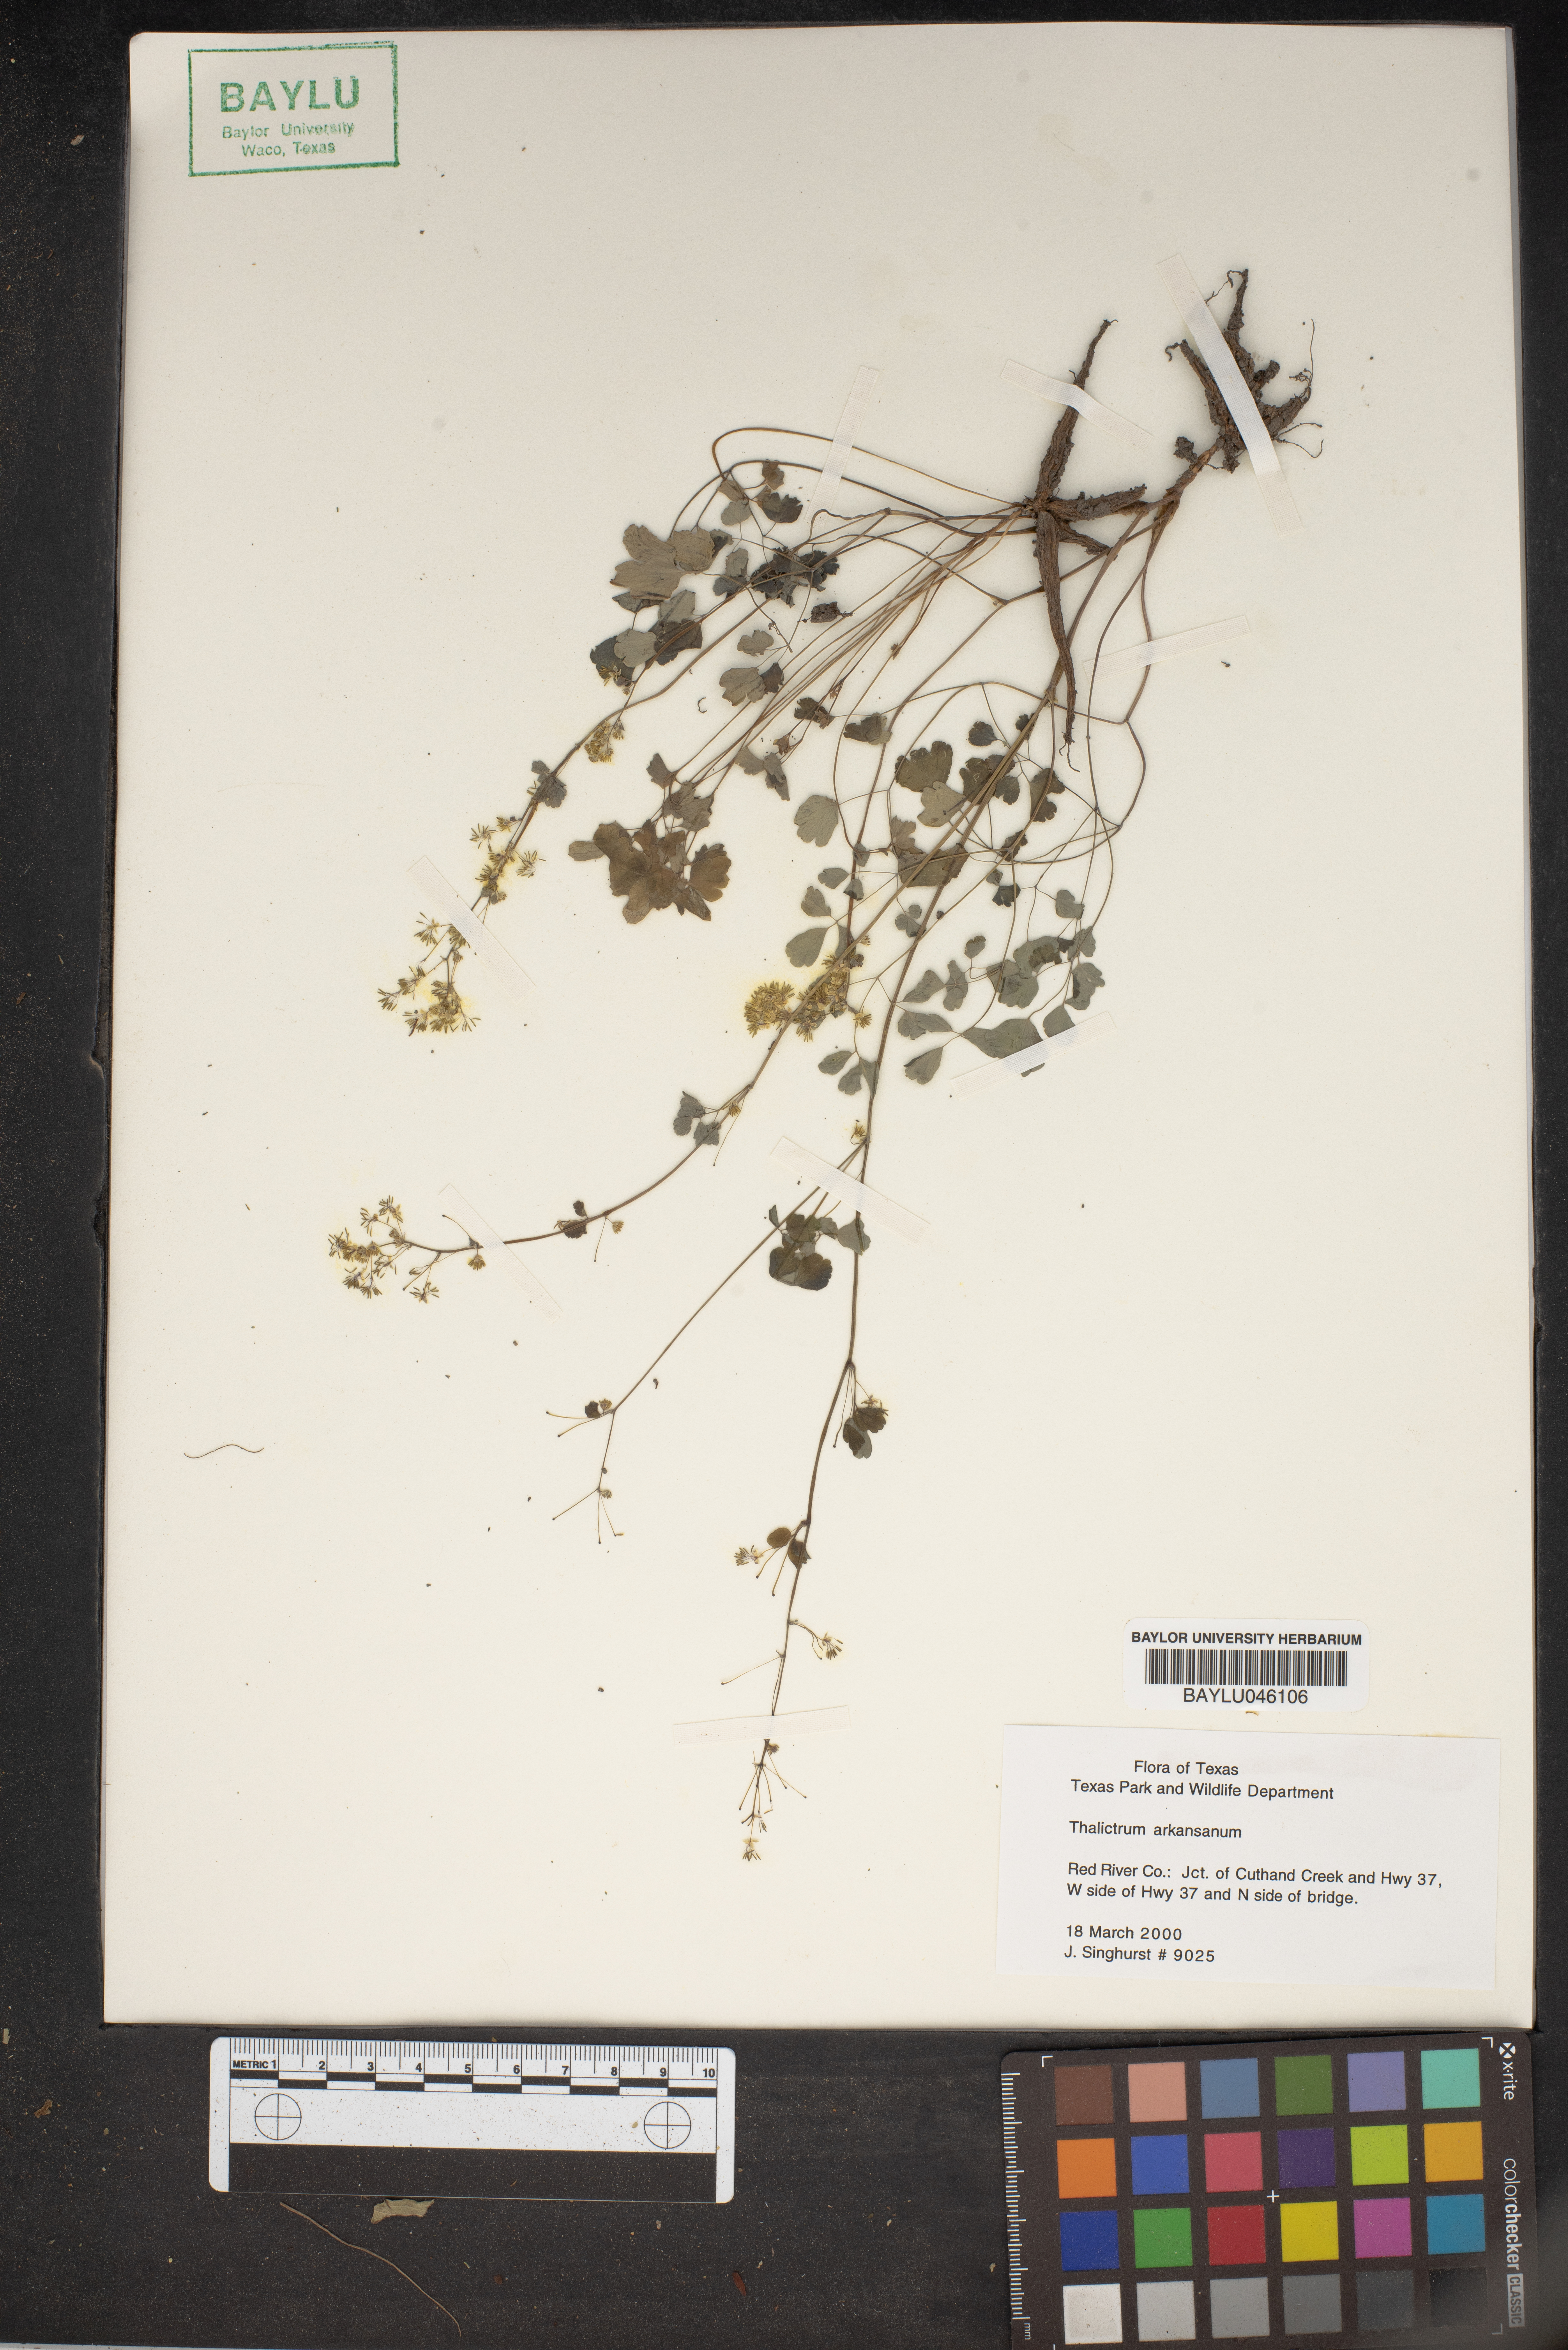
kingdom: Plantae
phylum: Tracheophyta
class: Magnoliopsida
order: Ranunculales
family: Ranunculaceae
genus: Thalictrum
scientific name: Thalictrum arkansanum
